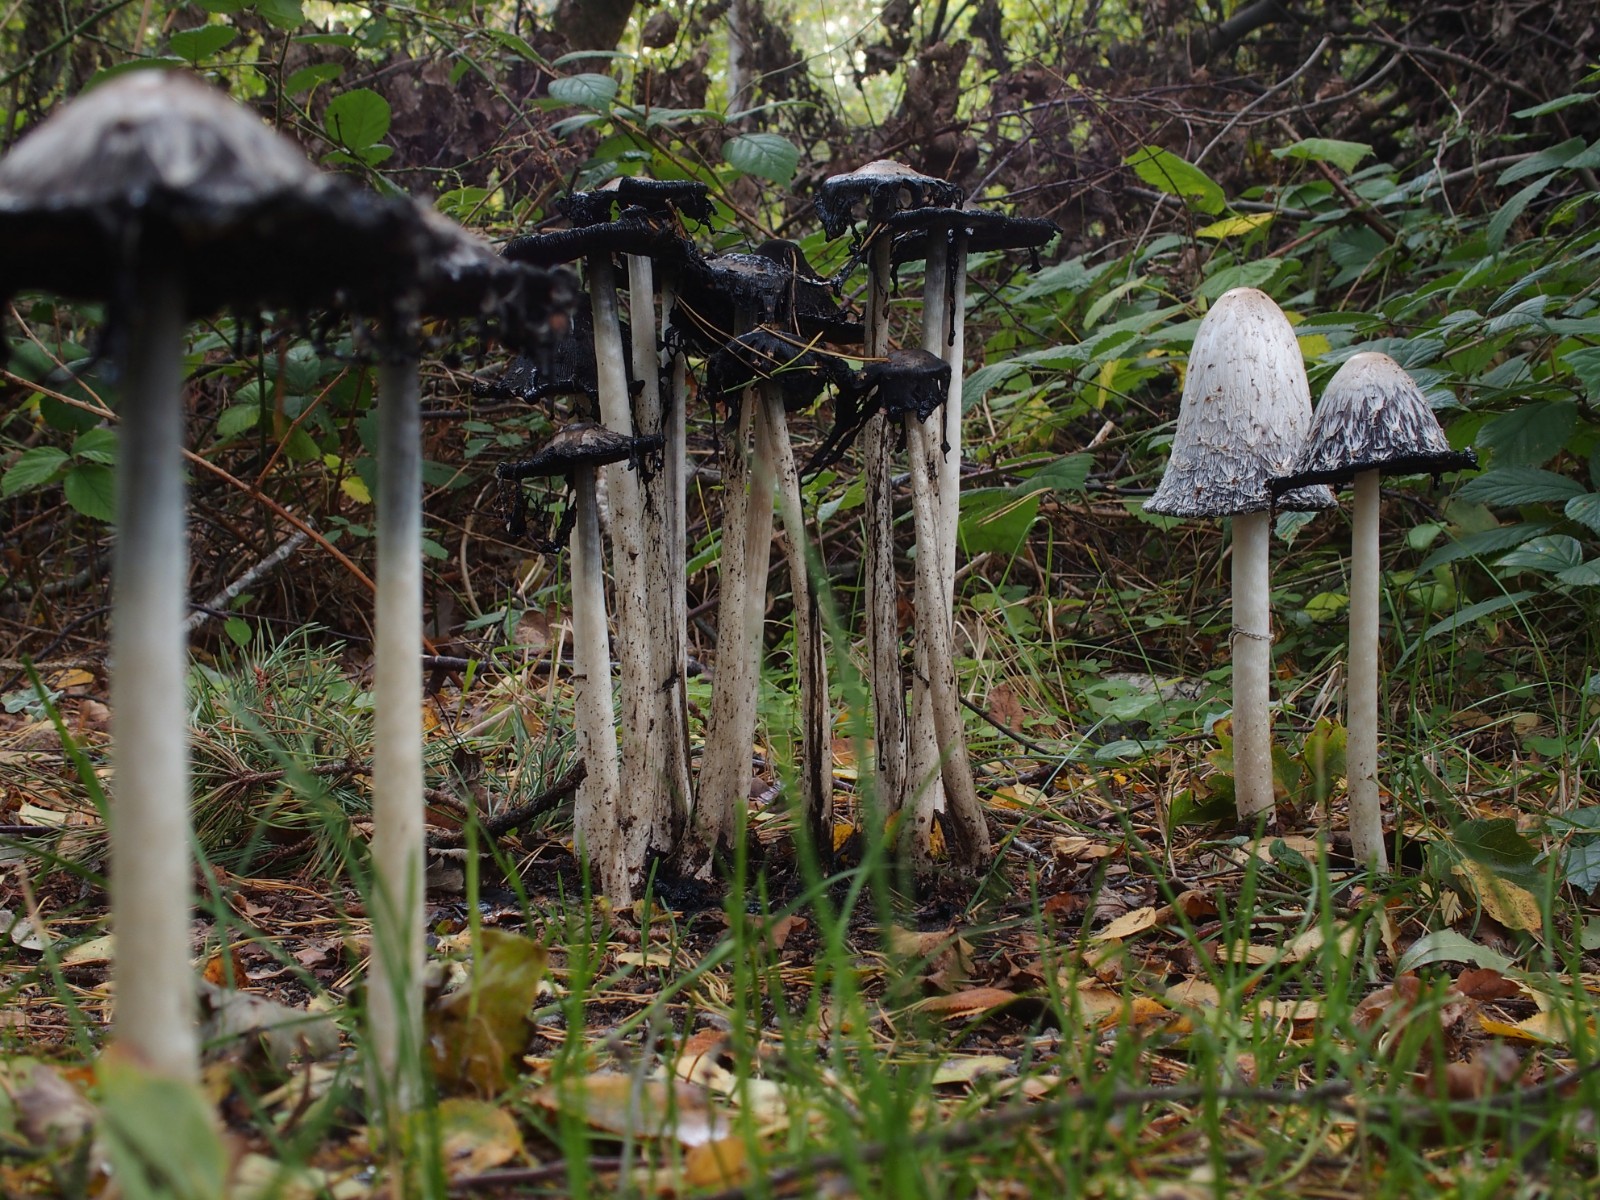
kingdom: Fungi
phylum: Basidiomycota
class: Agaricomycetes
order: Agaricales
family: Agaricaceae
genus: Coprinus
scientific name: Coprinus comatus
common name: stor parykhat
